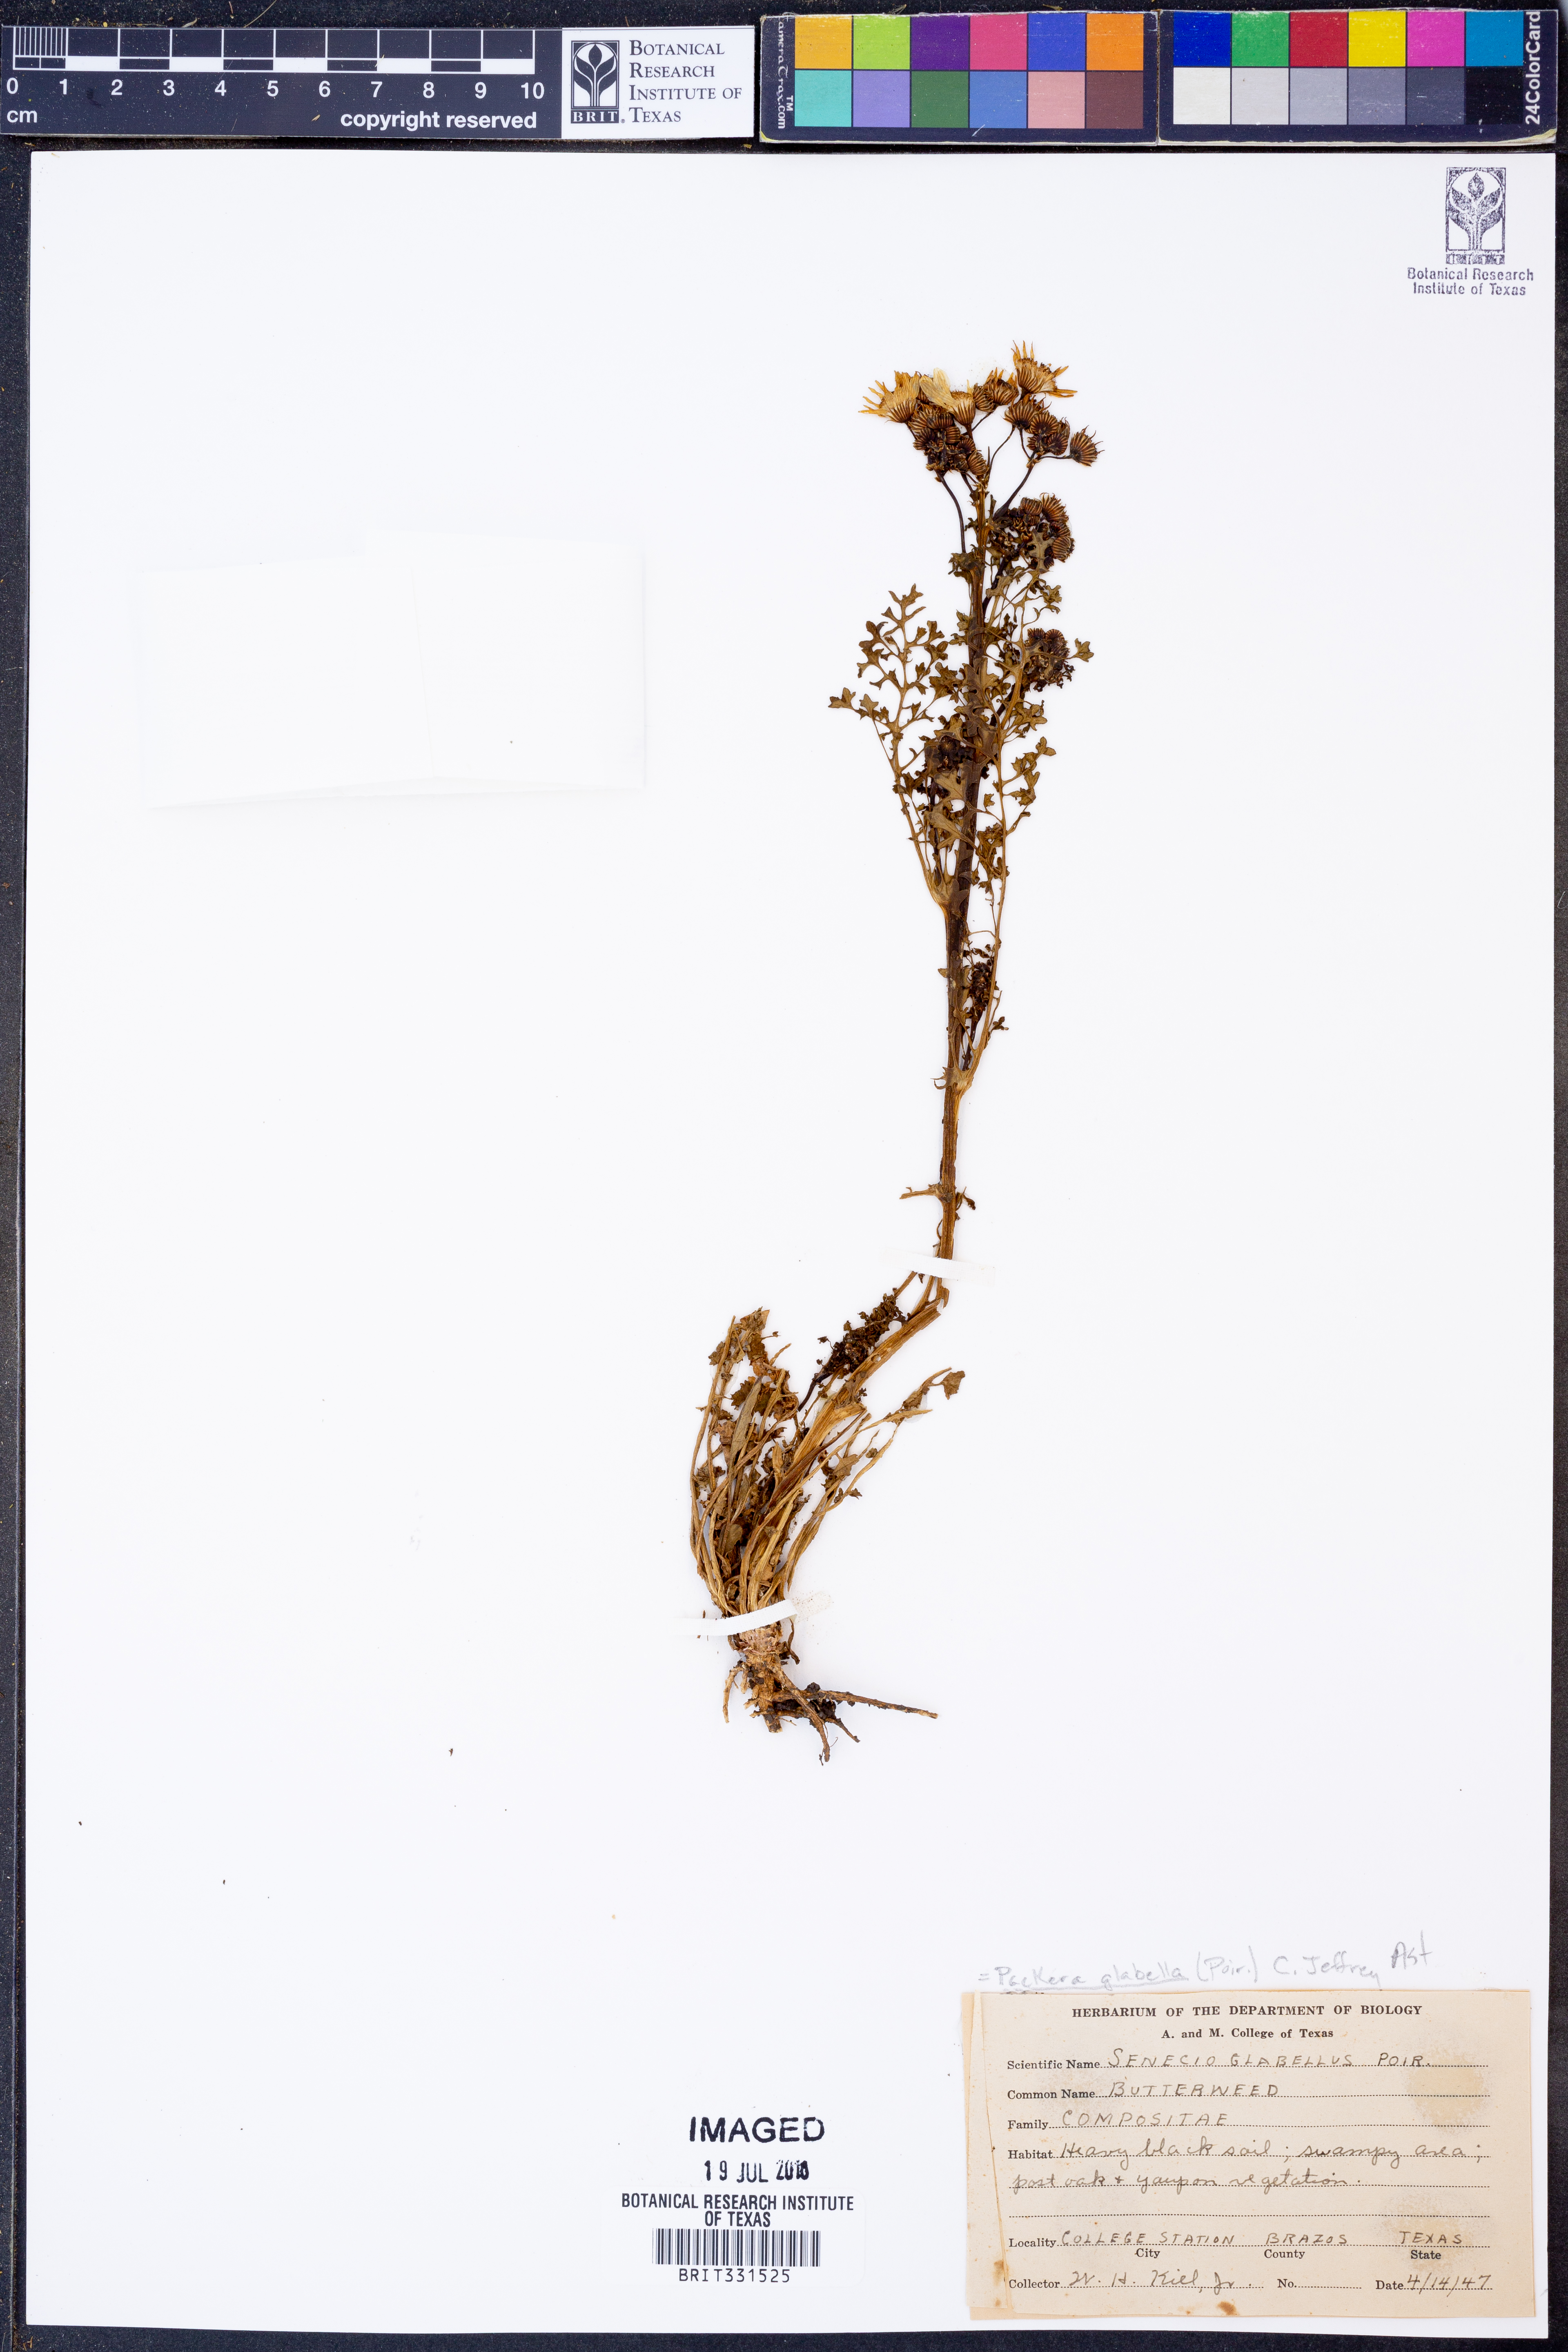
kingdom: Plantae
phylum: Tracheophyta
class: Magnoliopsida
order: Asterales
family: Asteraceae
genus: Packera
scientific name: Packera glabella
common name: Butterweed
